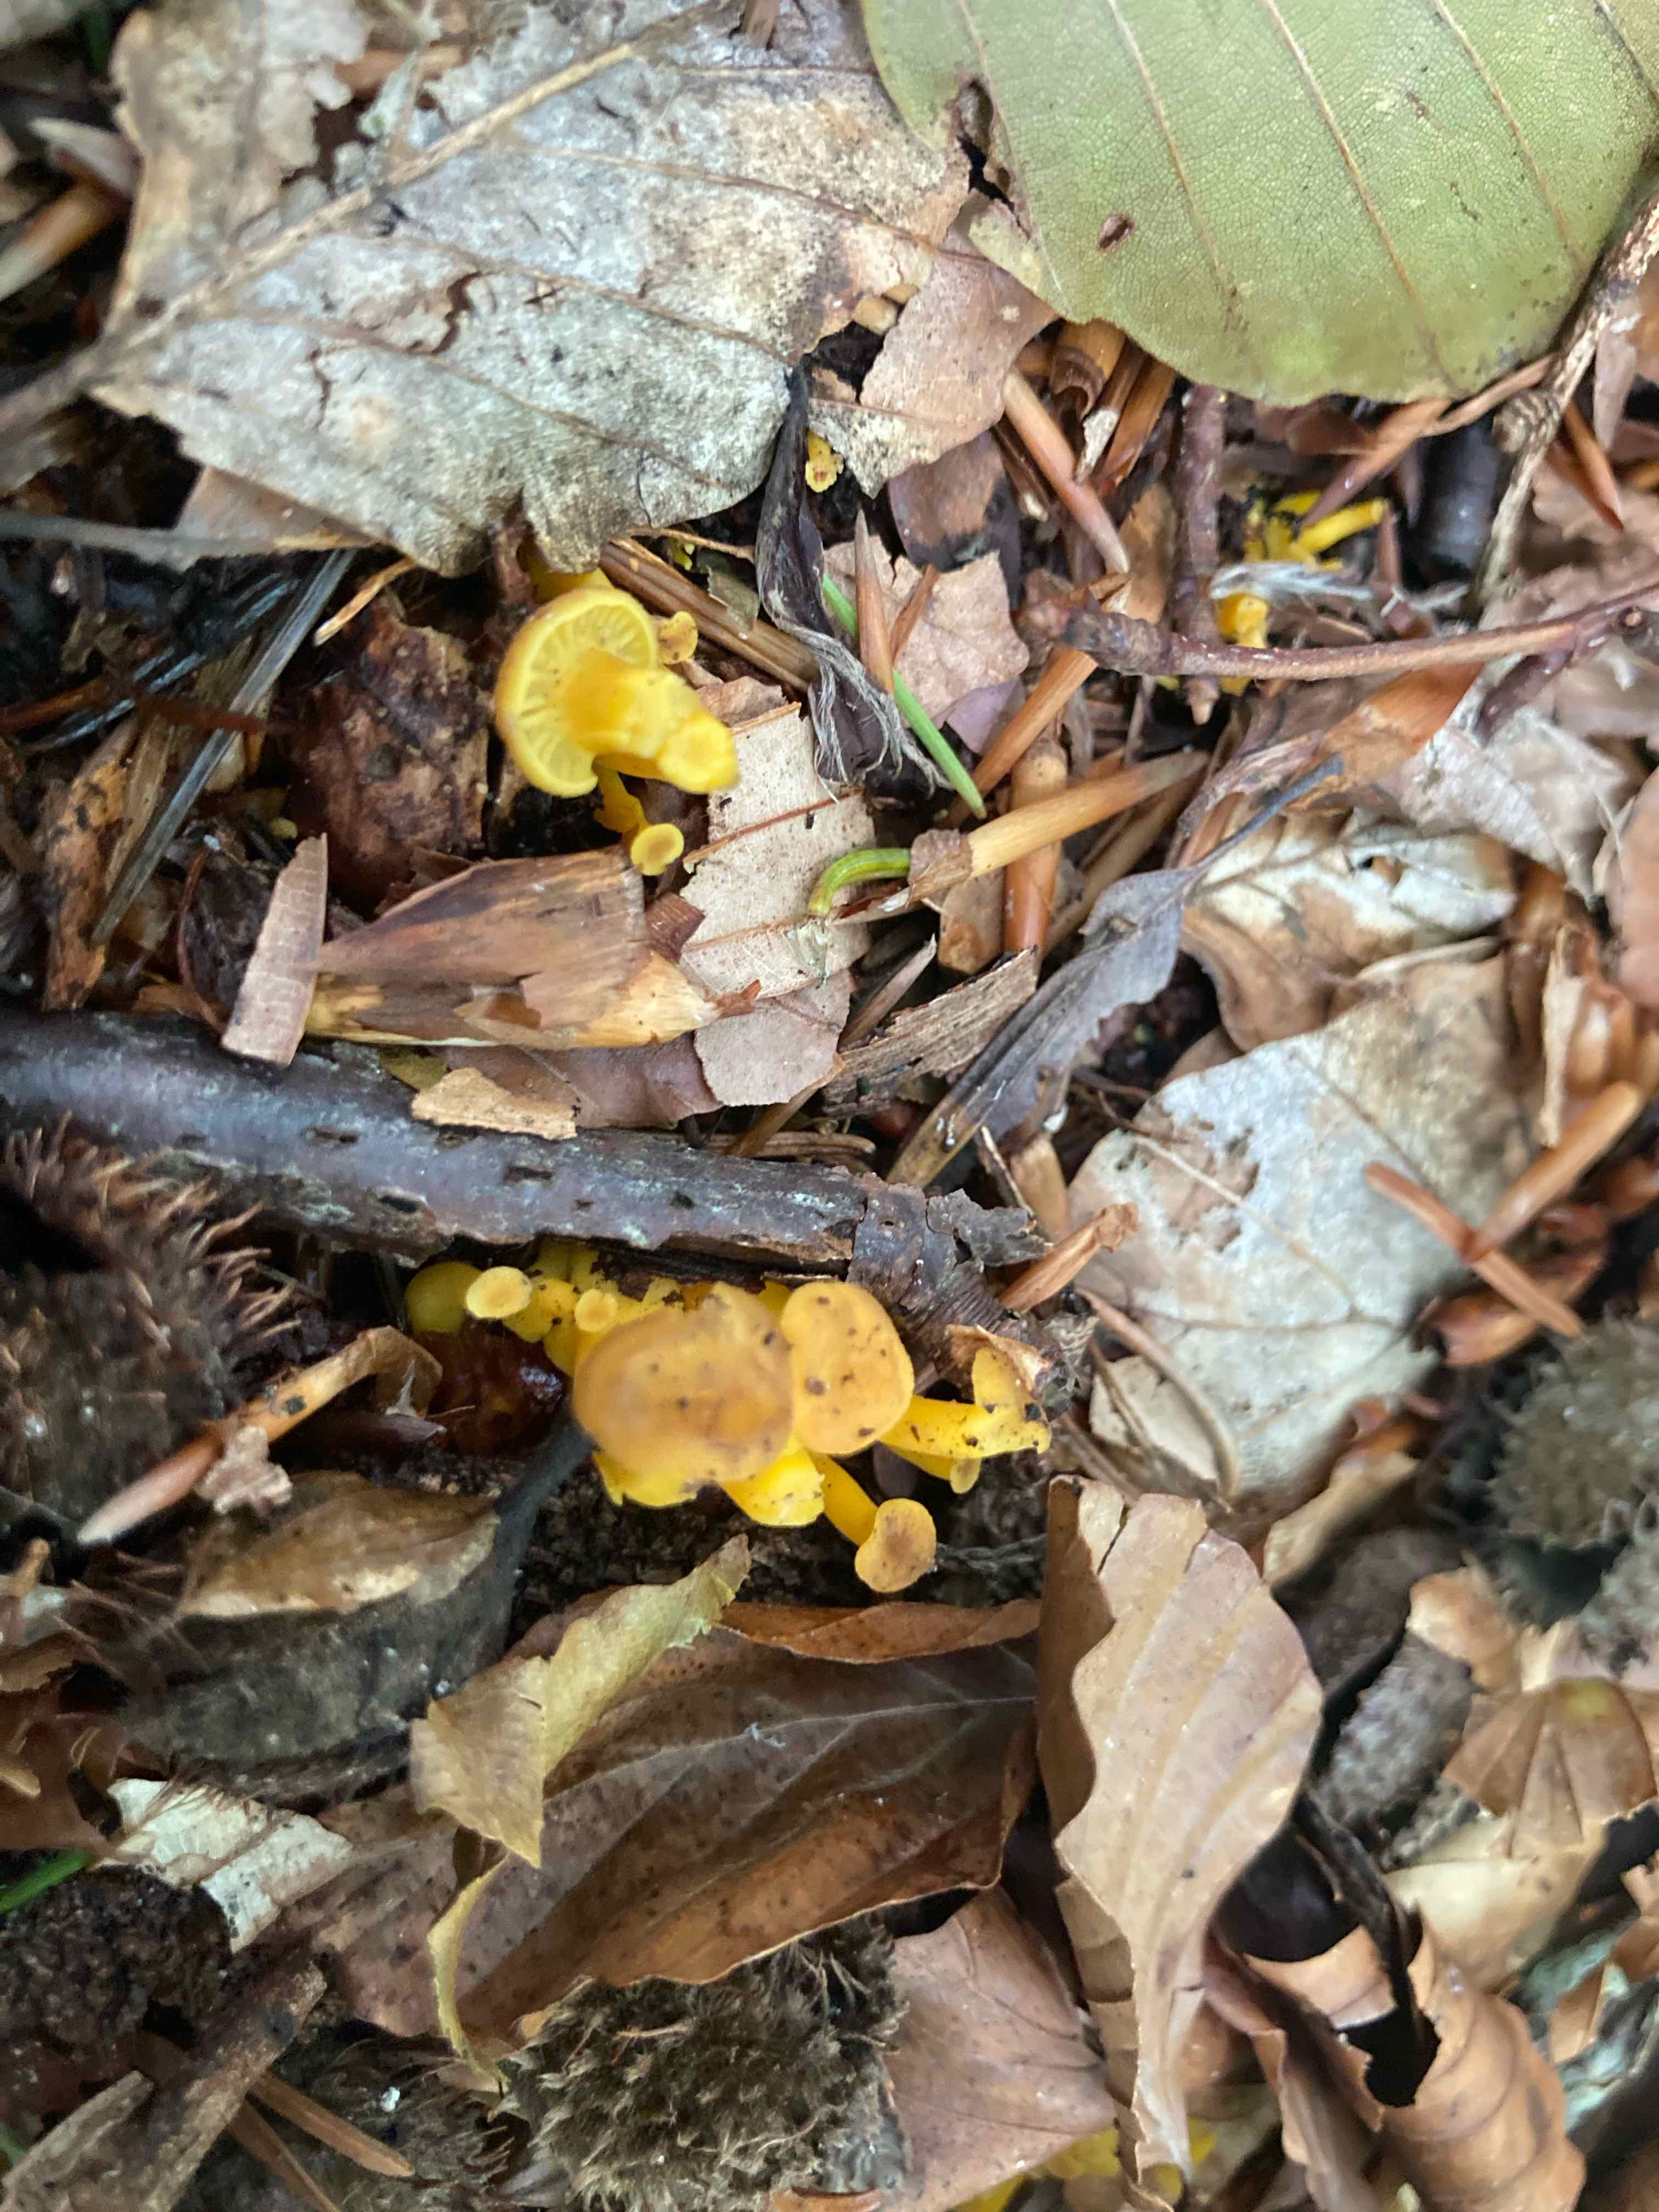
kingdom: Fungi
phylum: Basidiomycota
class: Agaricomycetes
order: Cantharellales
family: Hydnaceae
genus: Craterellus
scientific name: Craterellus tubaeformis
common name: tragt-kantarel
